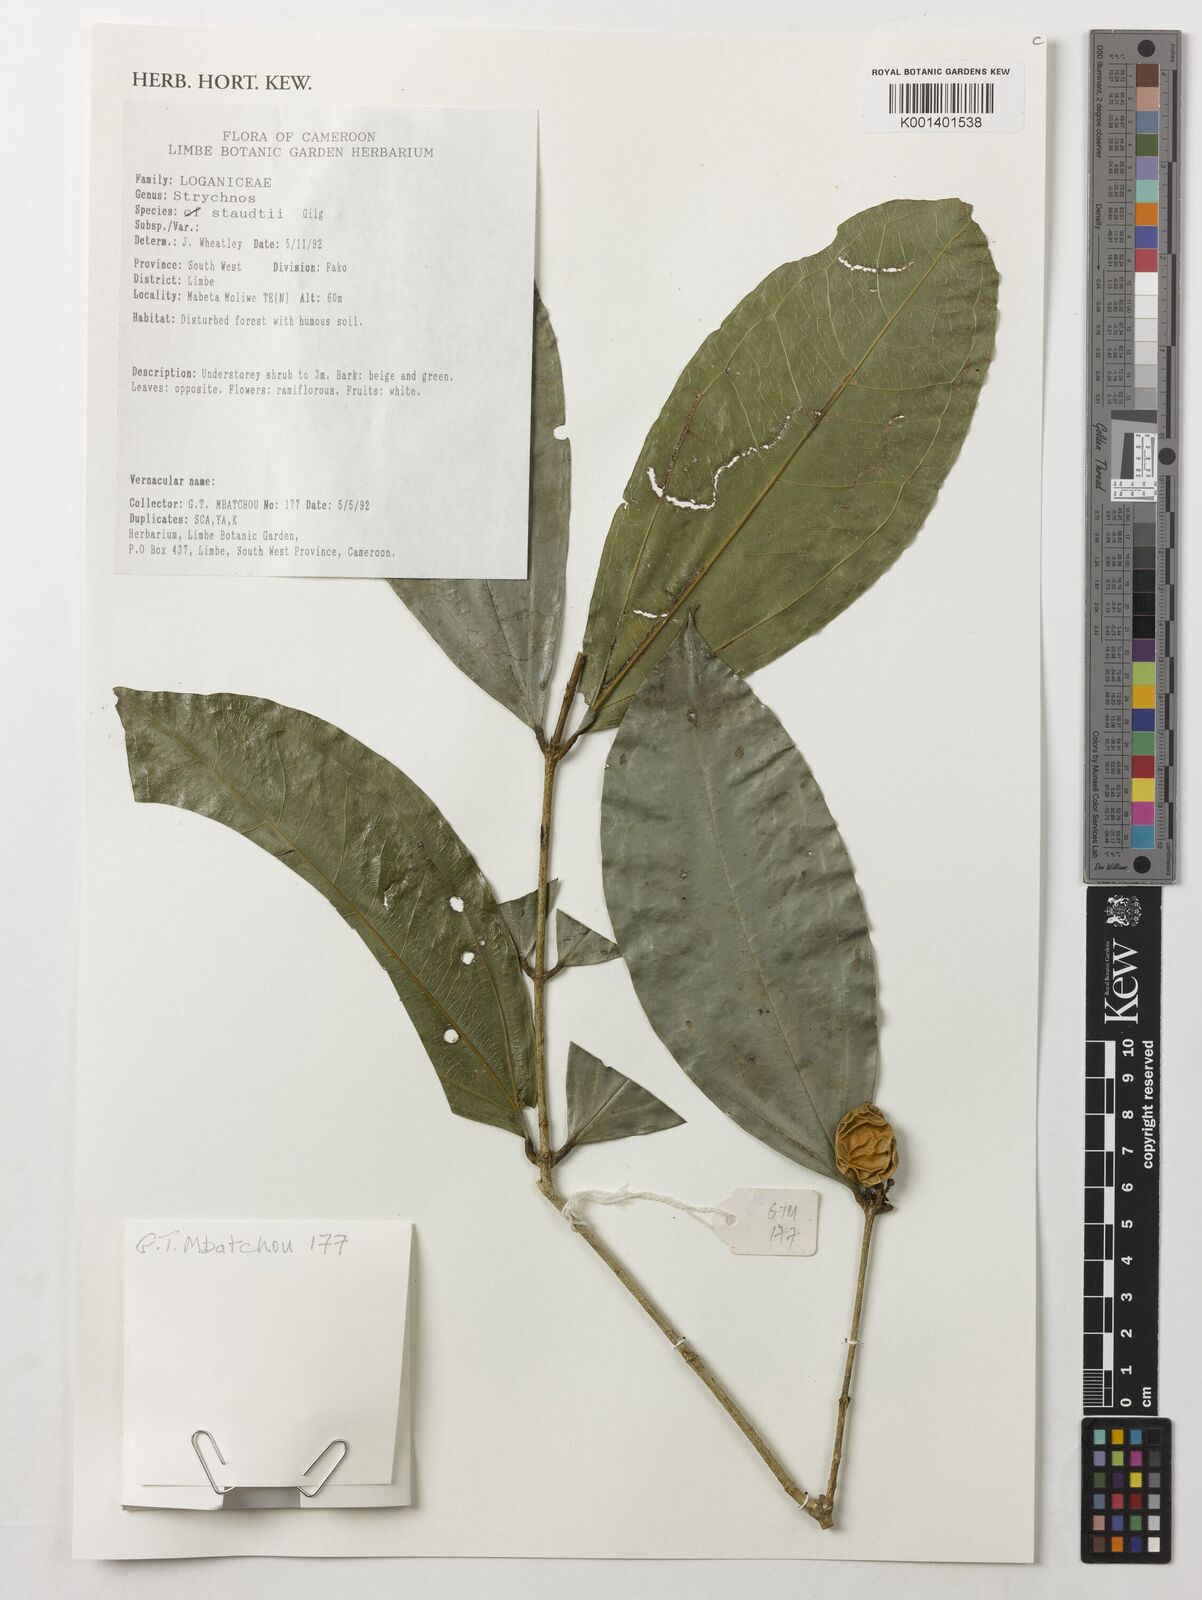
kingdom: Plantae
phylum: Tracheophyta
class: Magnoliopsida
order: Gentianales
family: Loganiaceae
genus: Strychnos
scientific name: Strychnos staudtii
